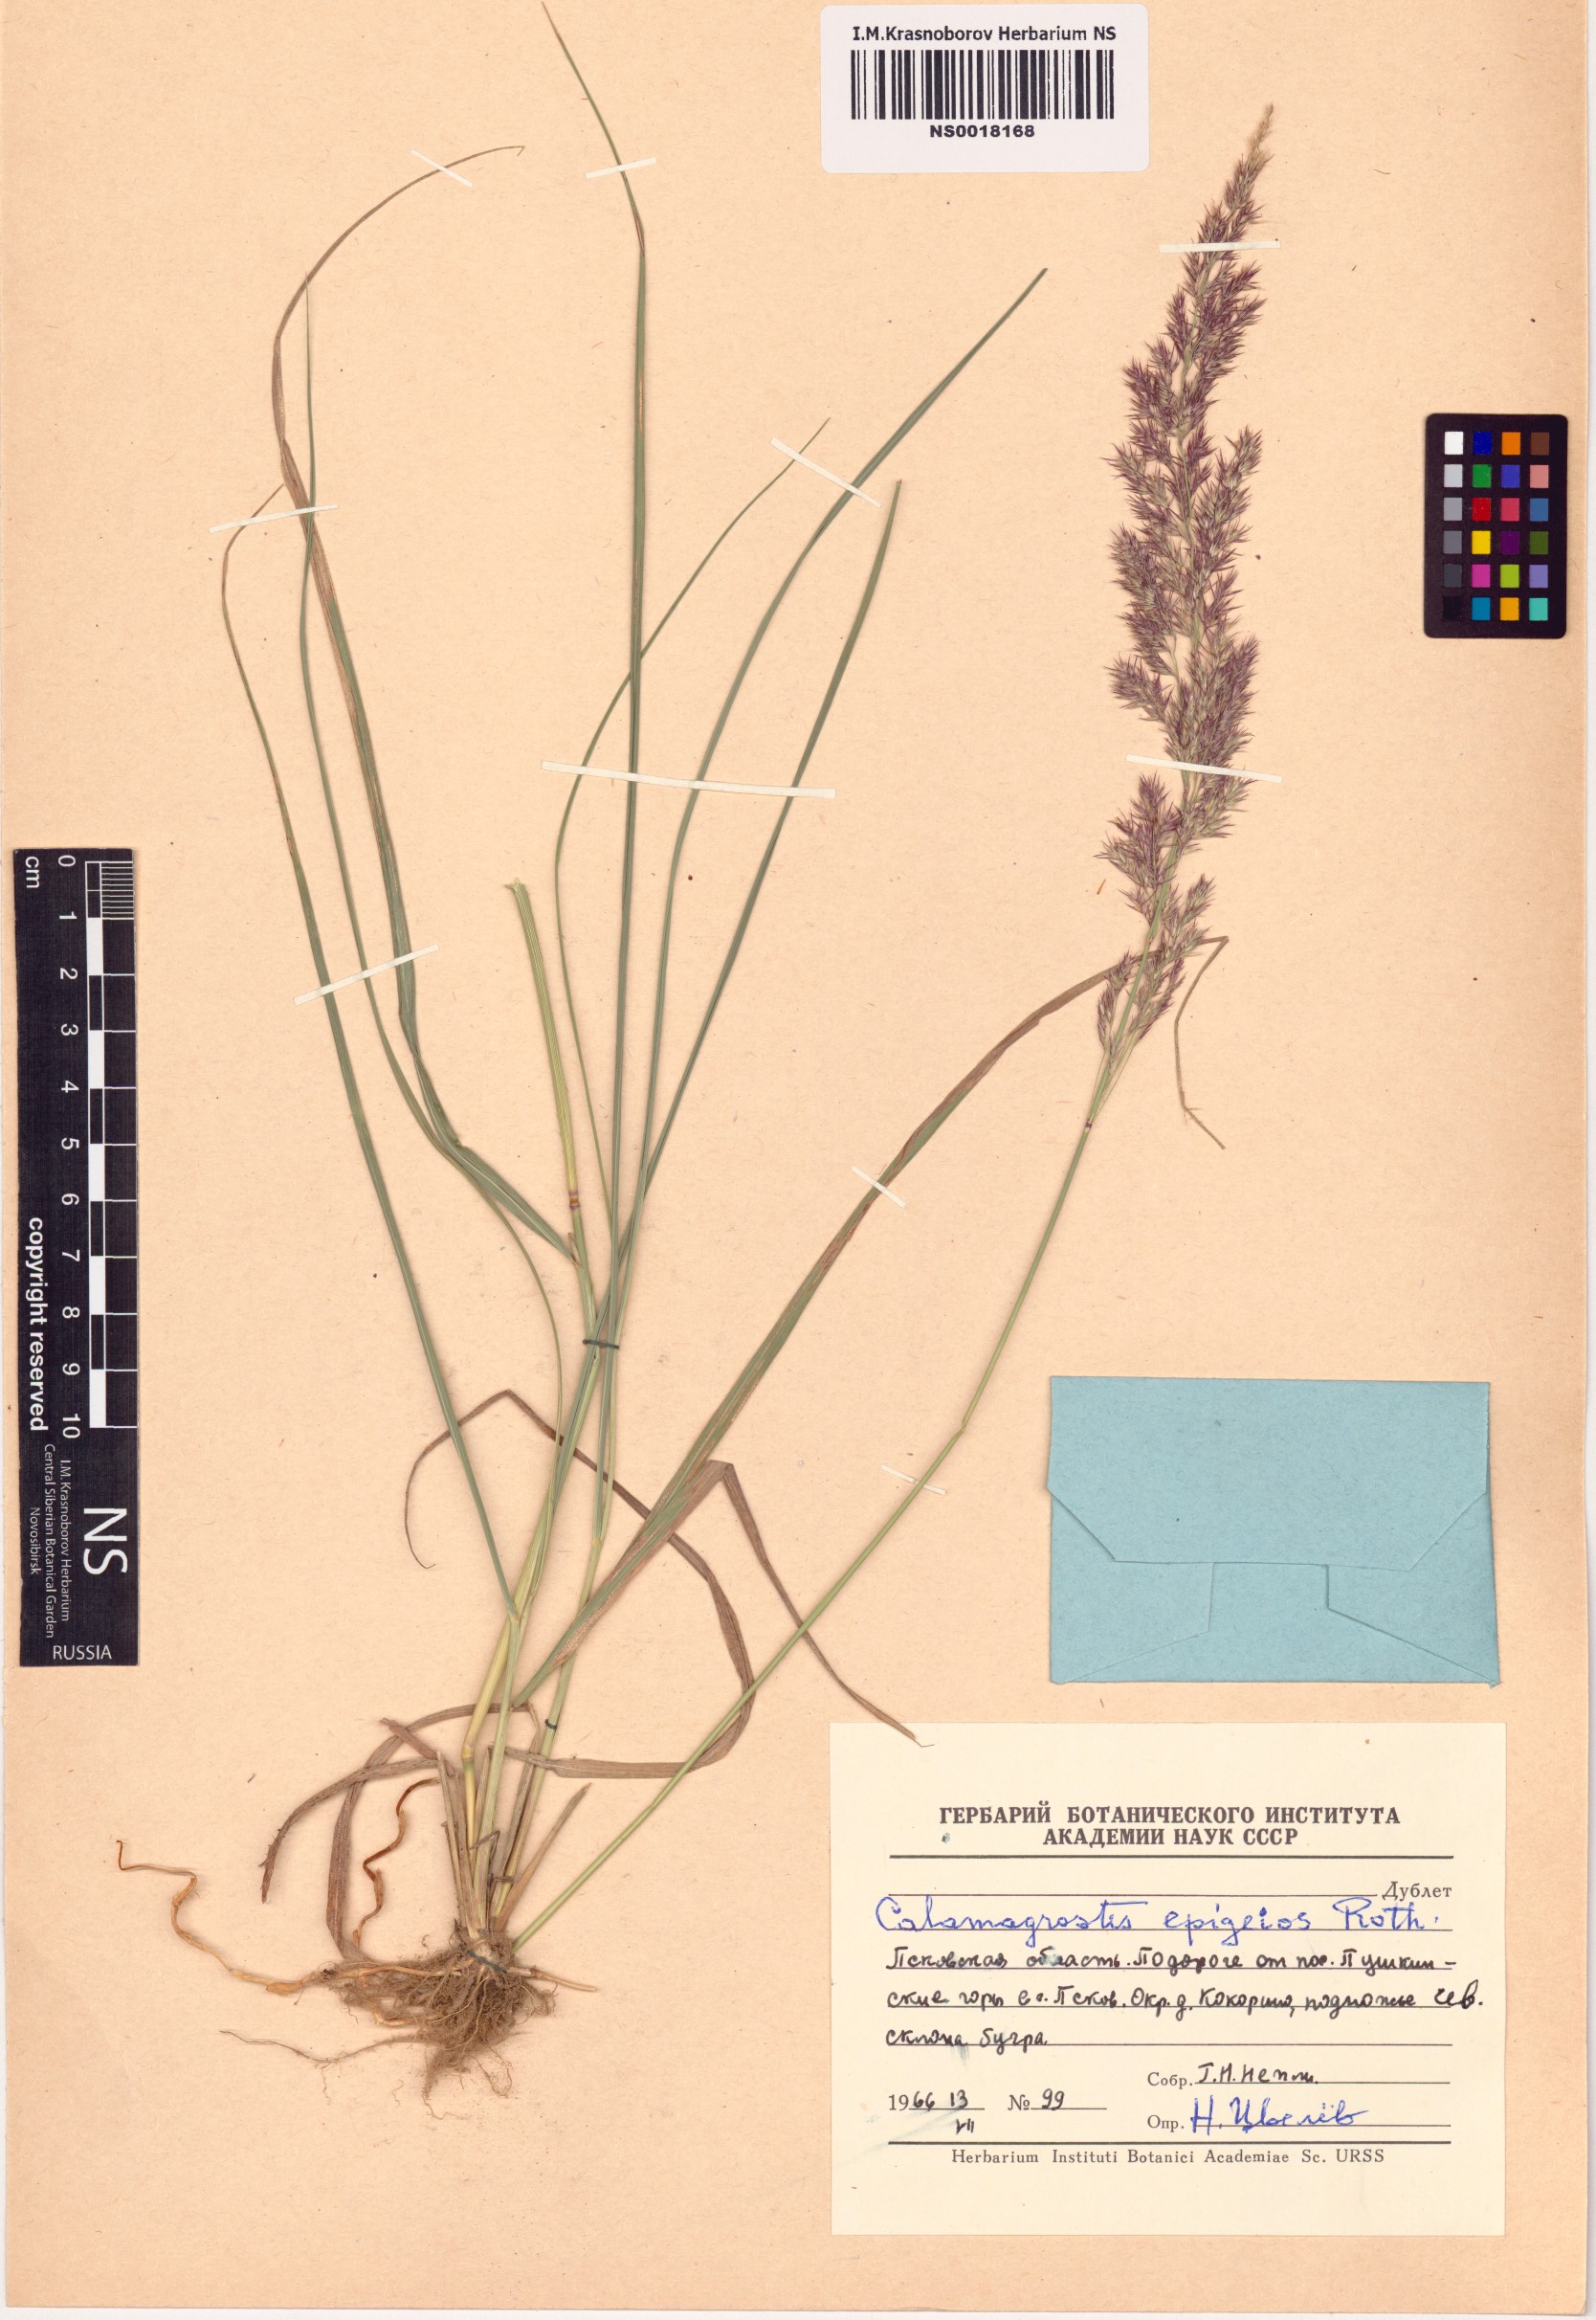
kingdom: Plantae
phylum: Tracheophyta
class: Liliopsida
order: Poales
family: Poaceae
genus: Calamagrostis
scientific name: Calamagrostis epigejos
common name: Wood small-reed
